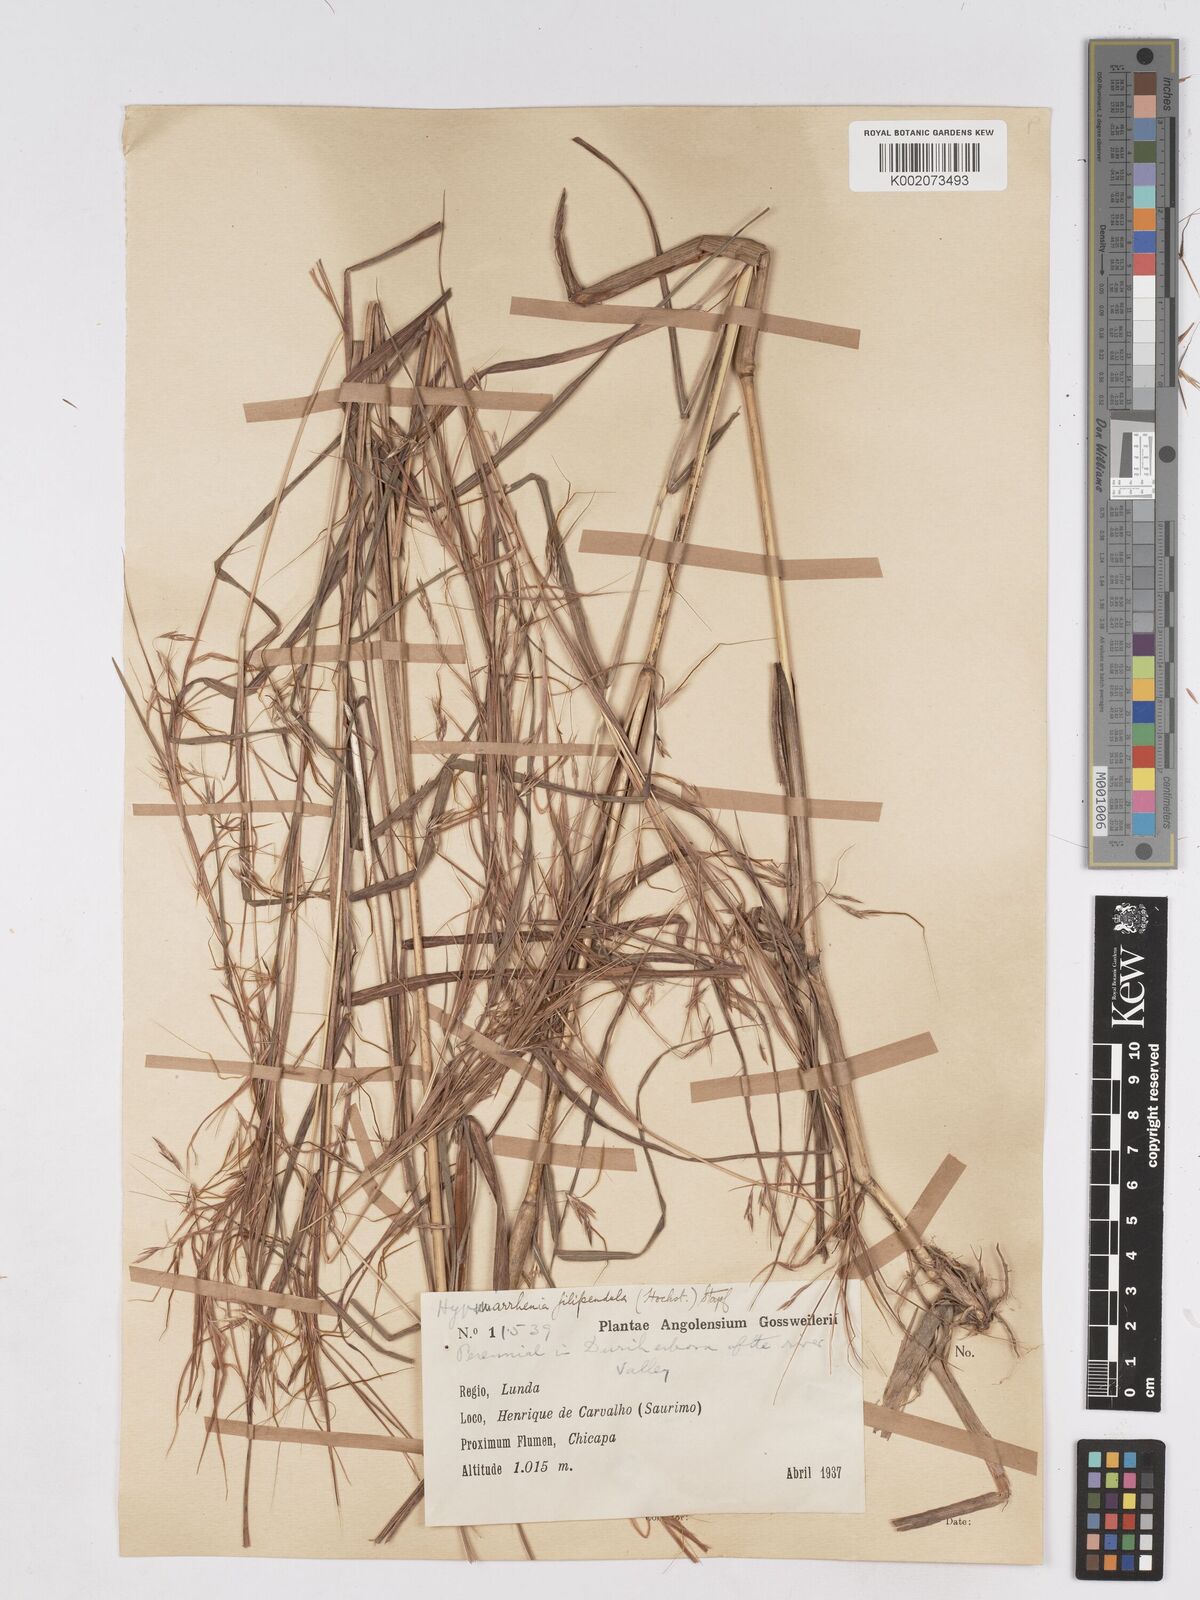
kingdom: Plantae
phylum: Tracheophyta
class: Liliopsida
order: Poales
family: Poaceae
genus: Hyparrhenia
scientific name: Hyparrhenia filipendula
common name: Tambookie grass
